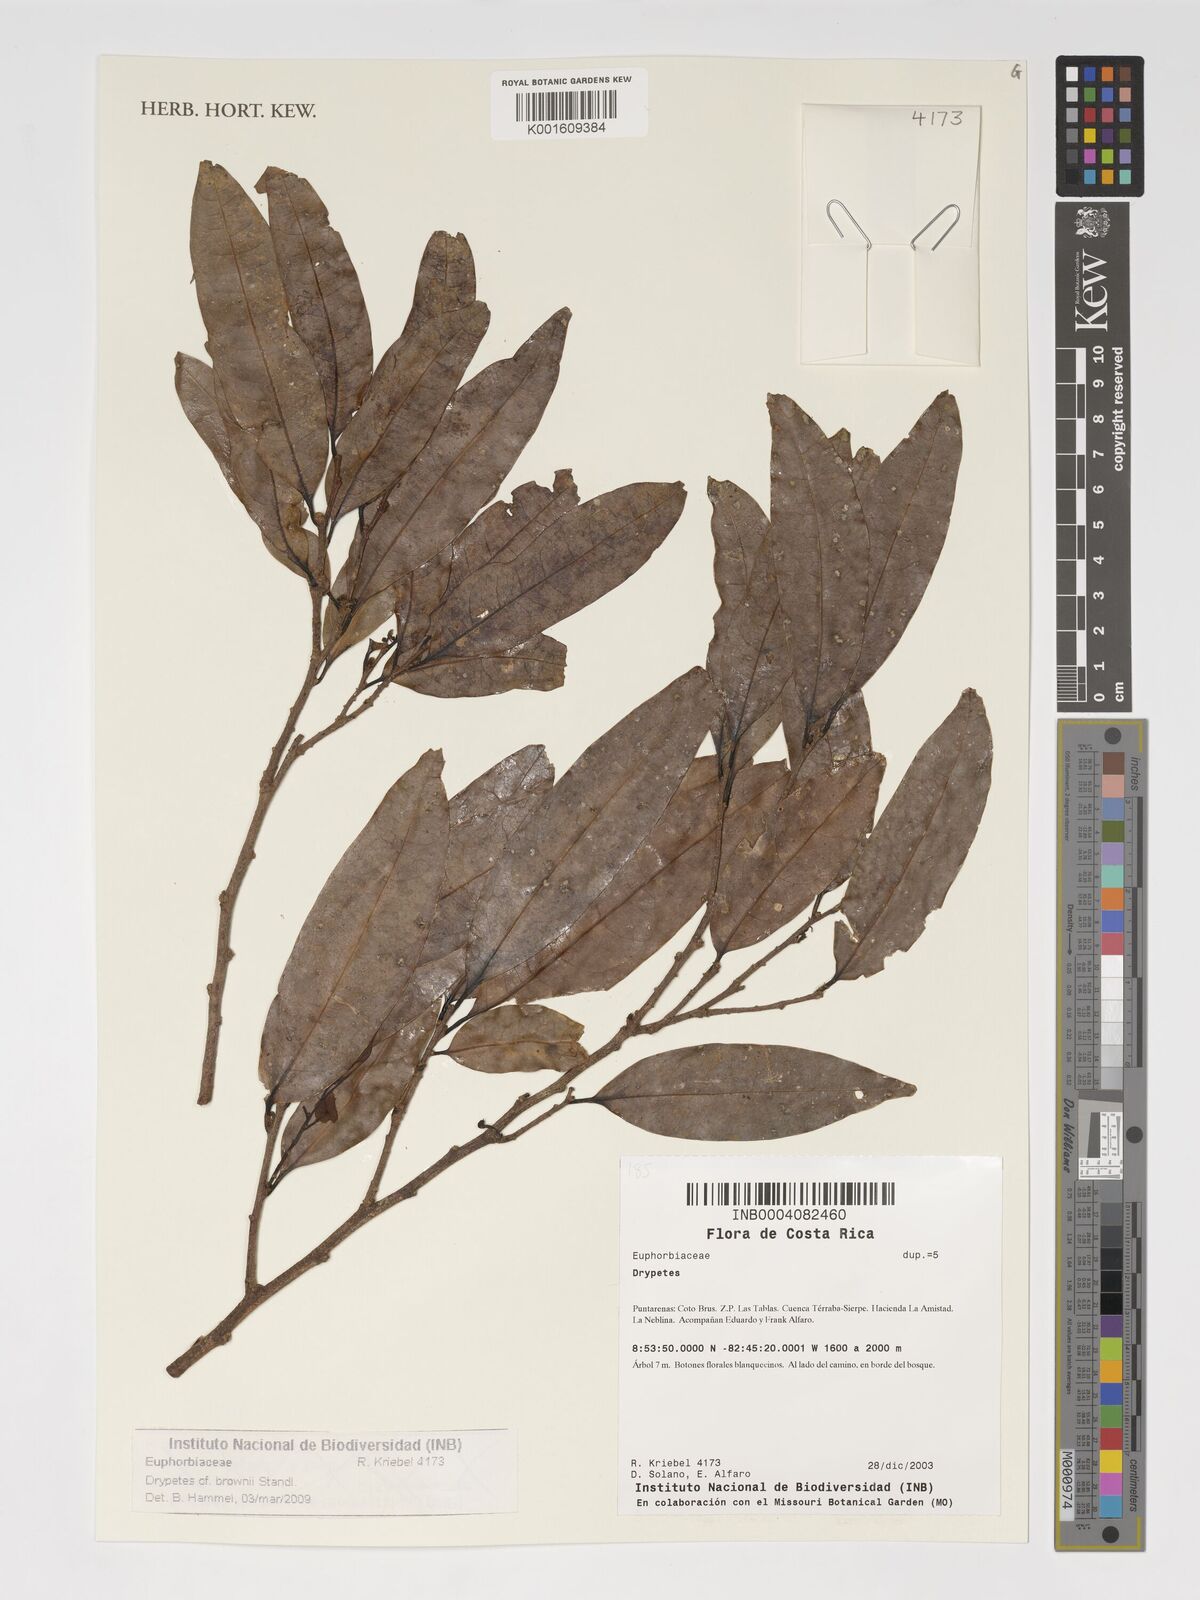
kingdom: Plantae
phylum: Tracheophyta
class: Magnoliopsida
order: Malpighiales
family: Putranjivaceae
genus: Drypetes
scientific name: Drypetes brownii
